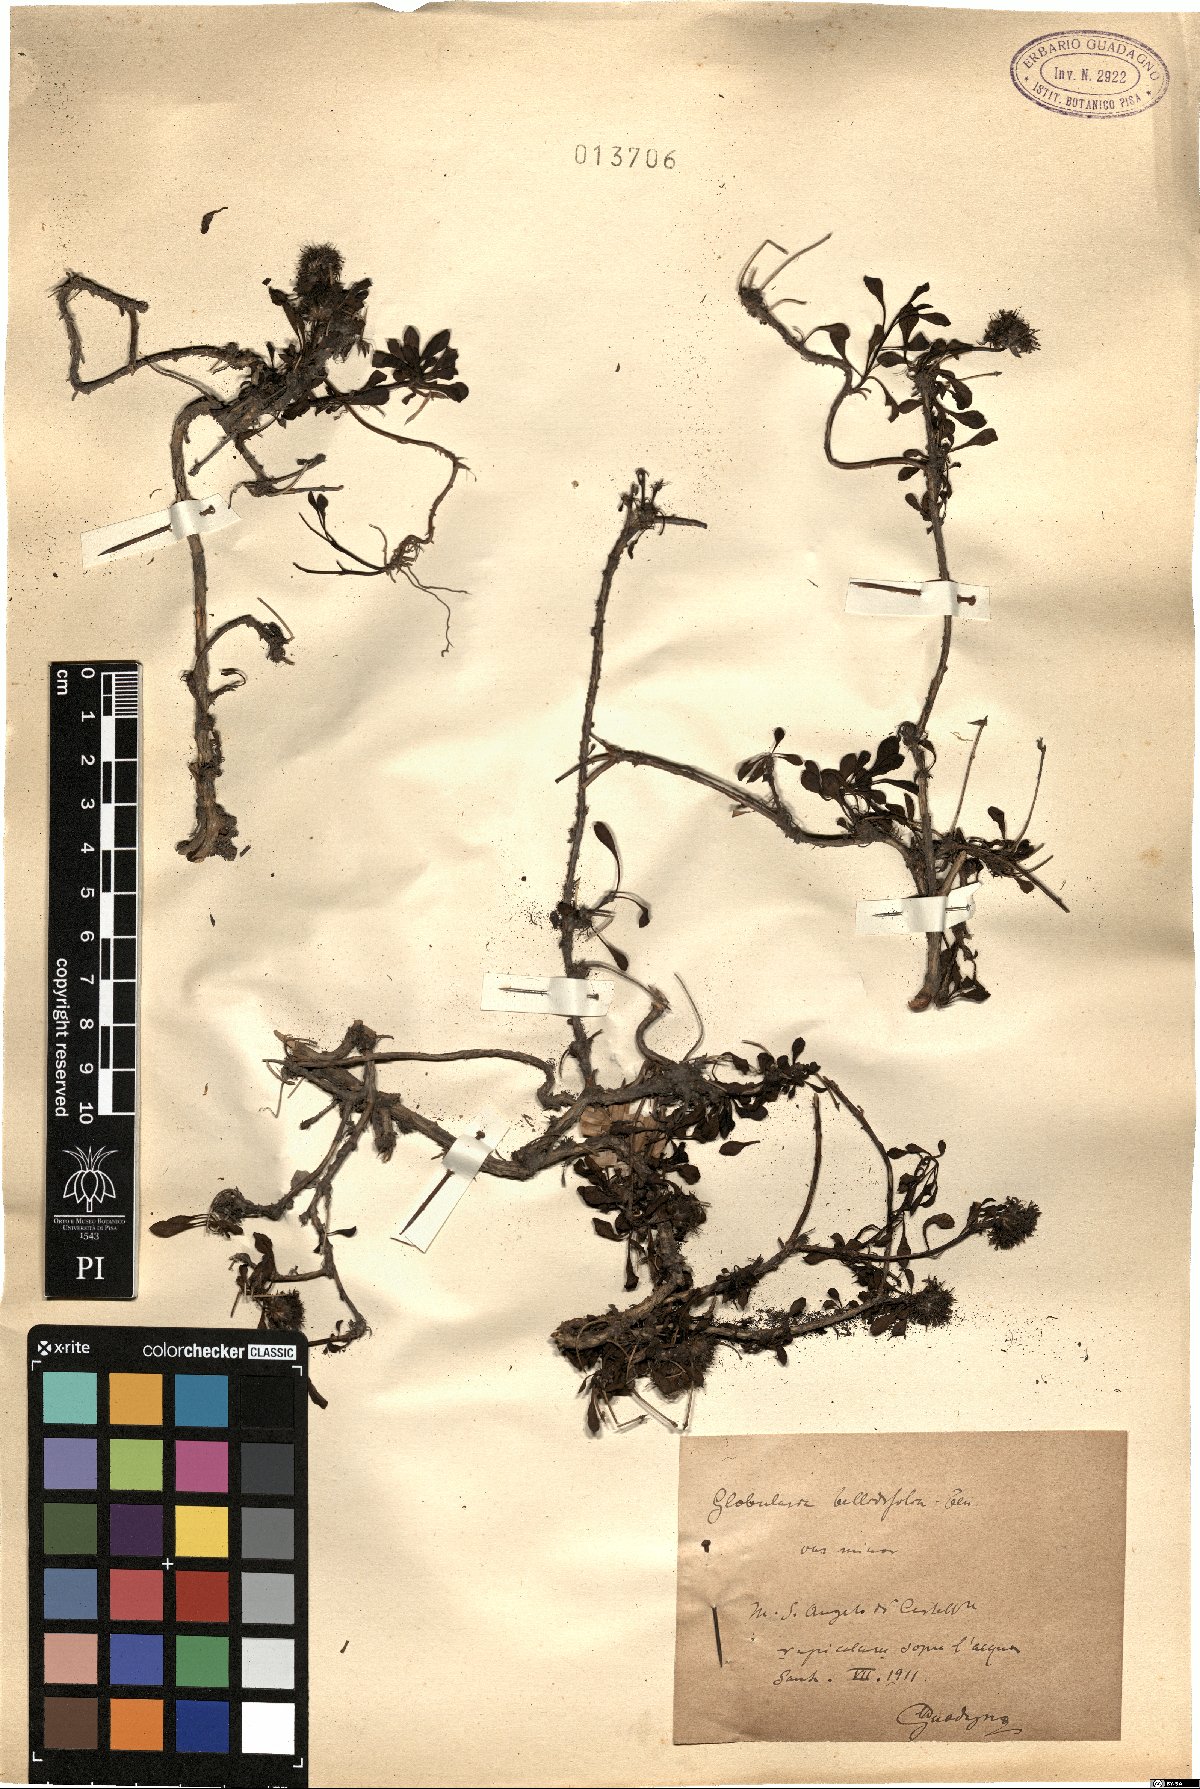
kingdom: Plantae
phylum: Tracheophyta
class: Magnoliopsida
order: Lamiales
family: Plantaginaceae
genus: Globularia
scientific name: Globularia cordifolia
